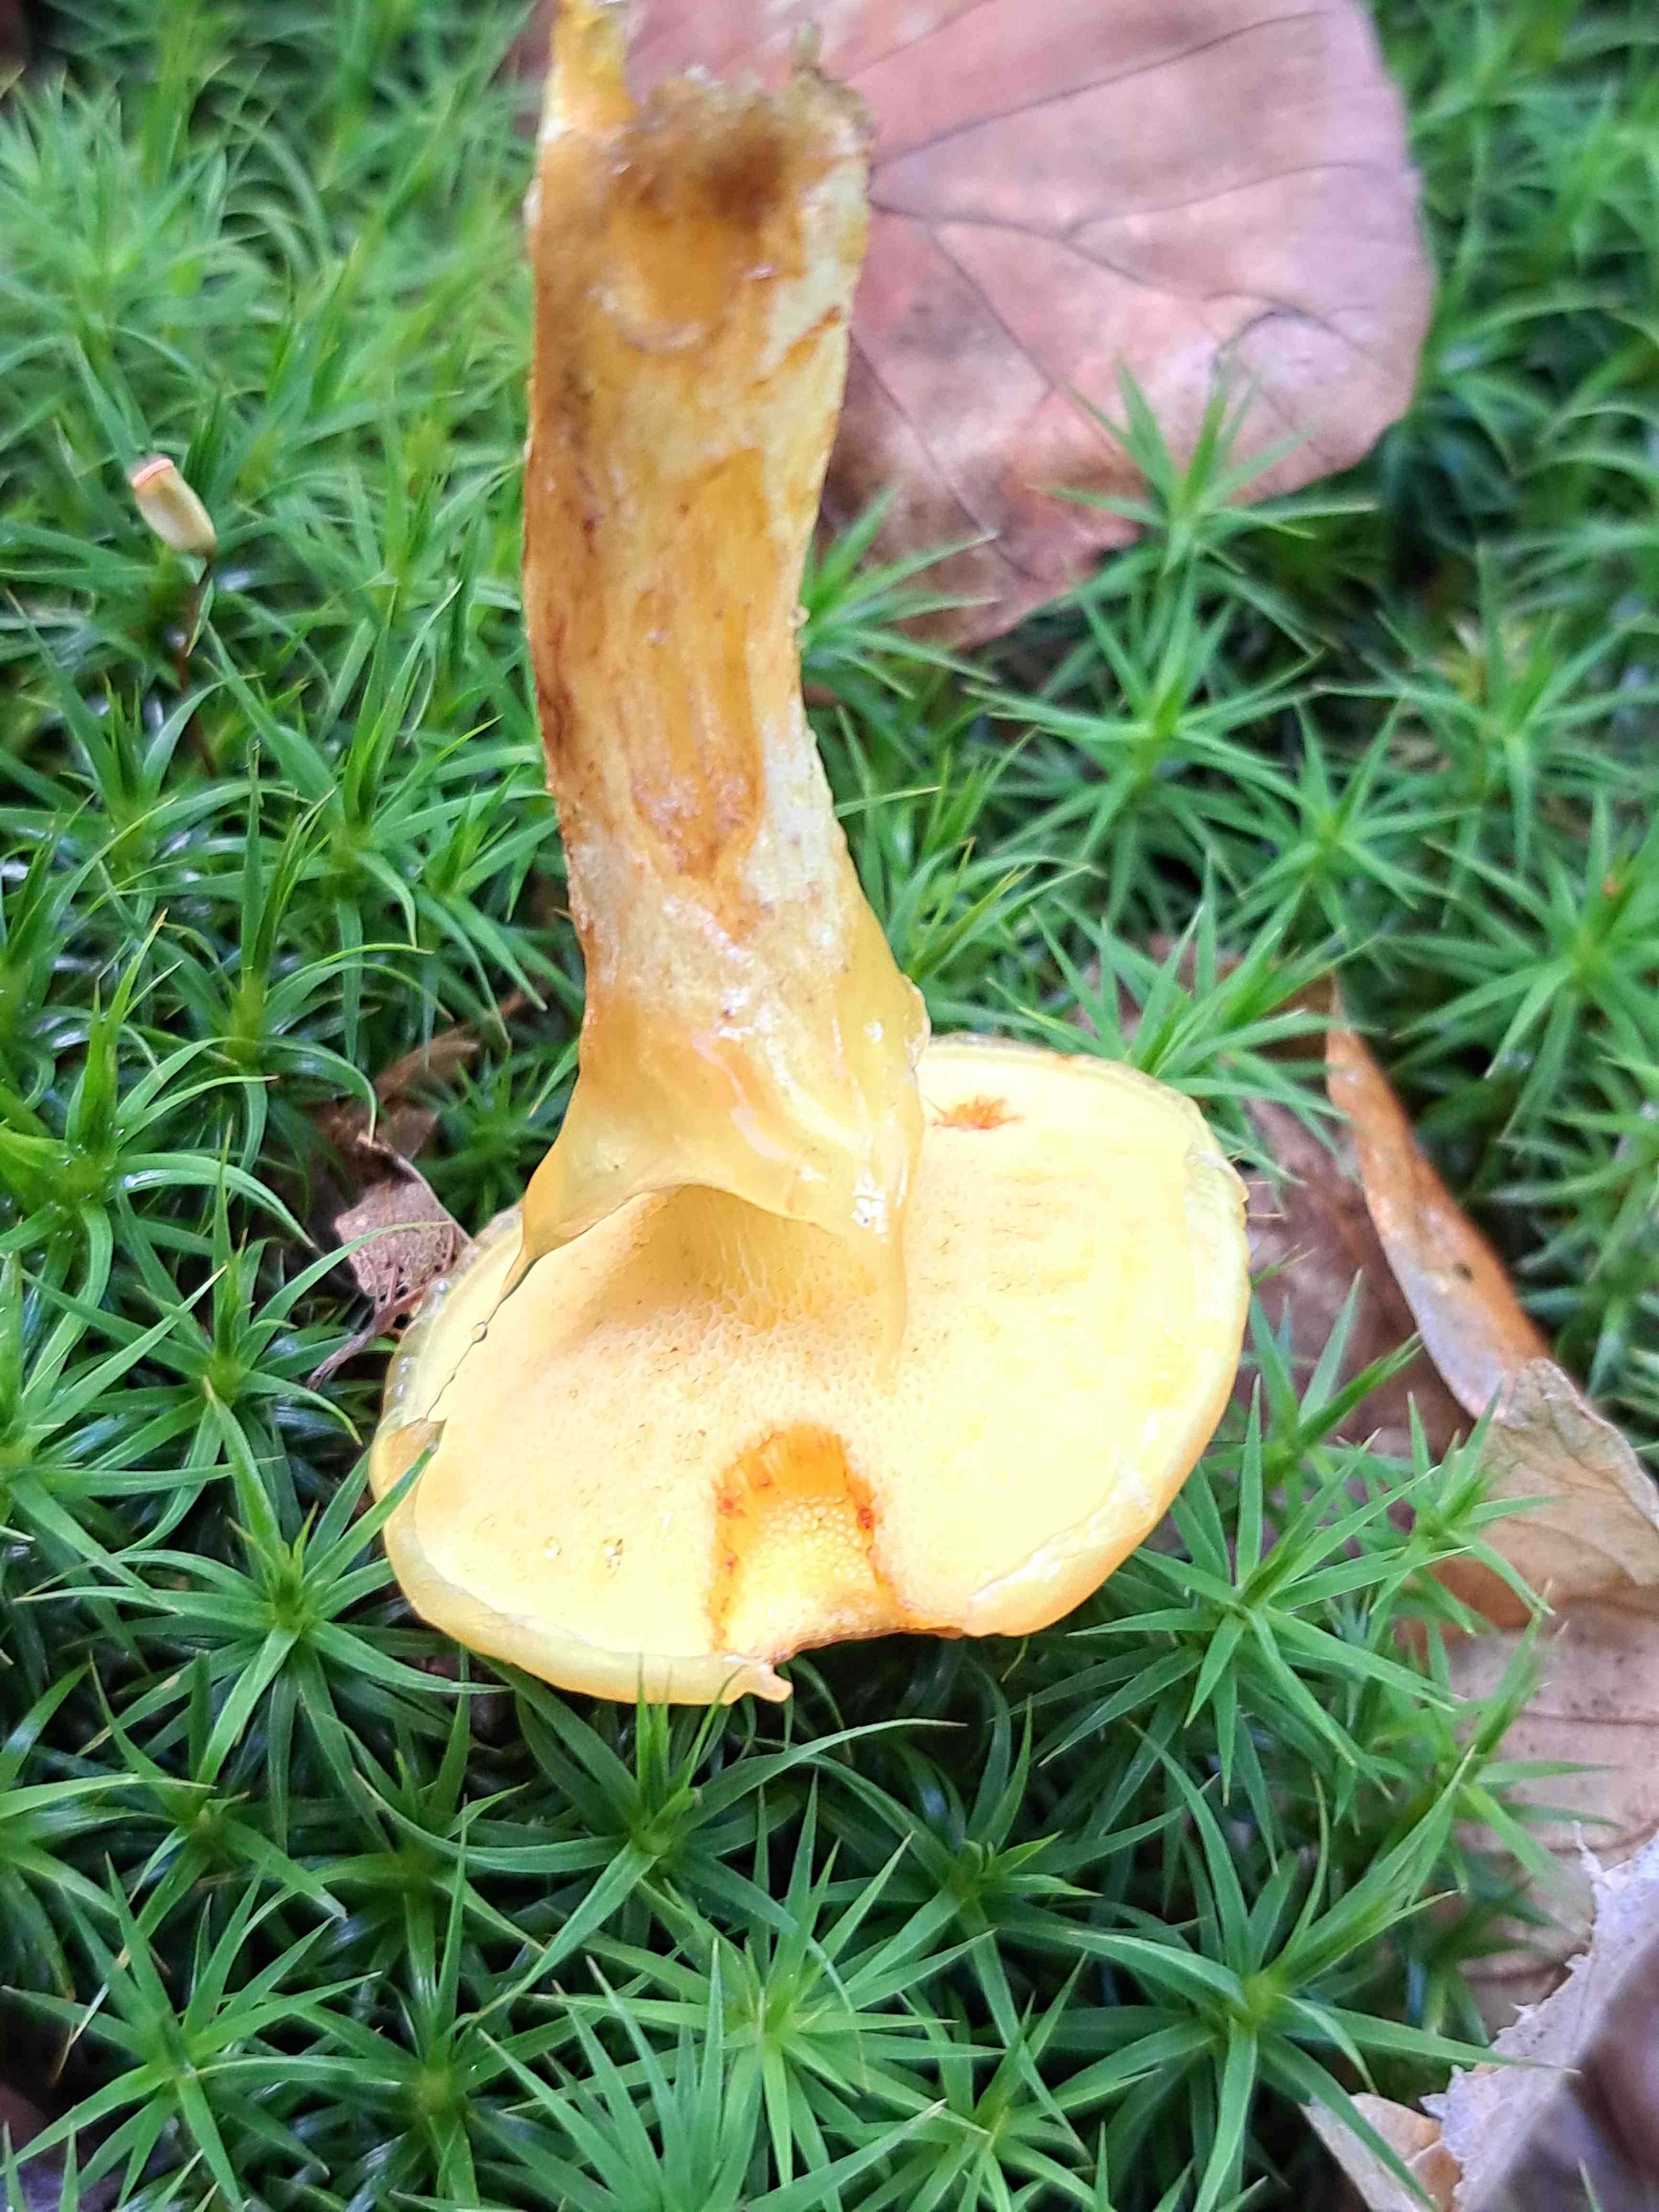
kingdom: Fungi
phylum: Basidiomycota
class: Agaricomycetes
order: Boletales
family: Suillaceae
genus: Suillus
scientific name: Suillus grevillei
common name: lærke-slimrørhat
